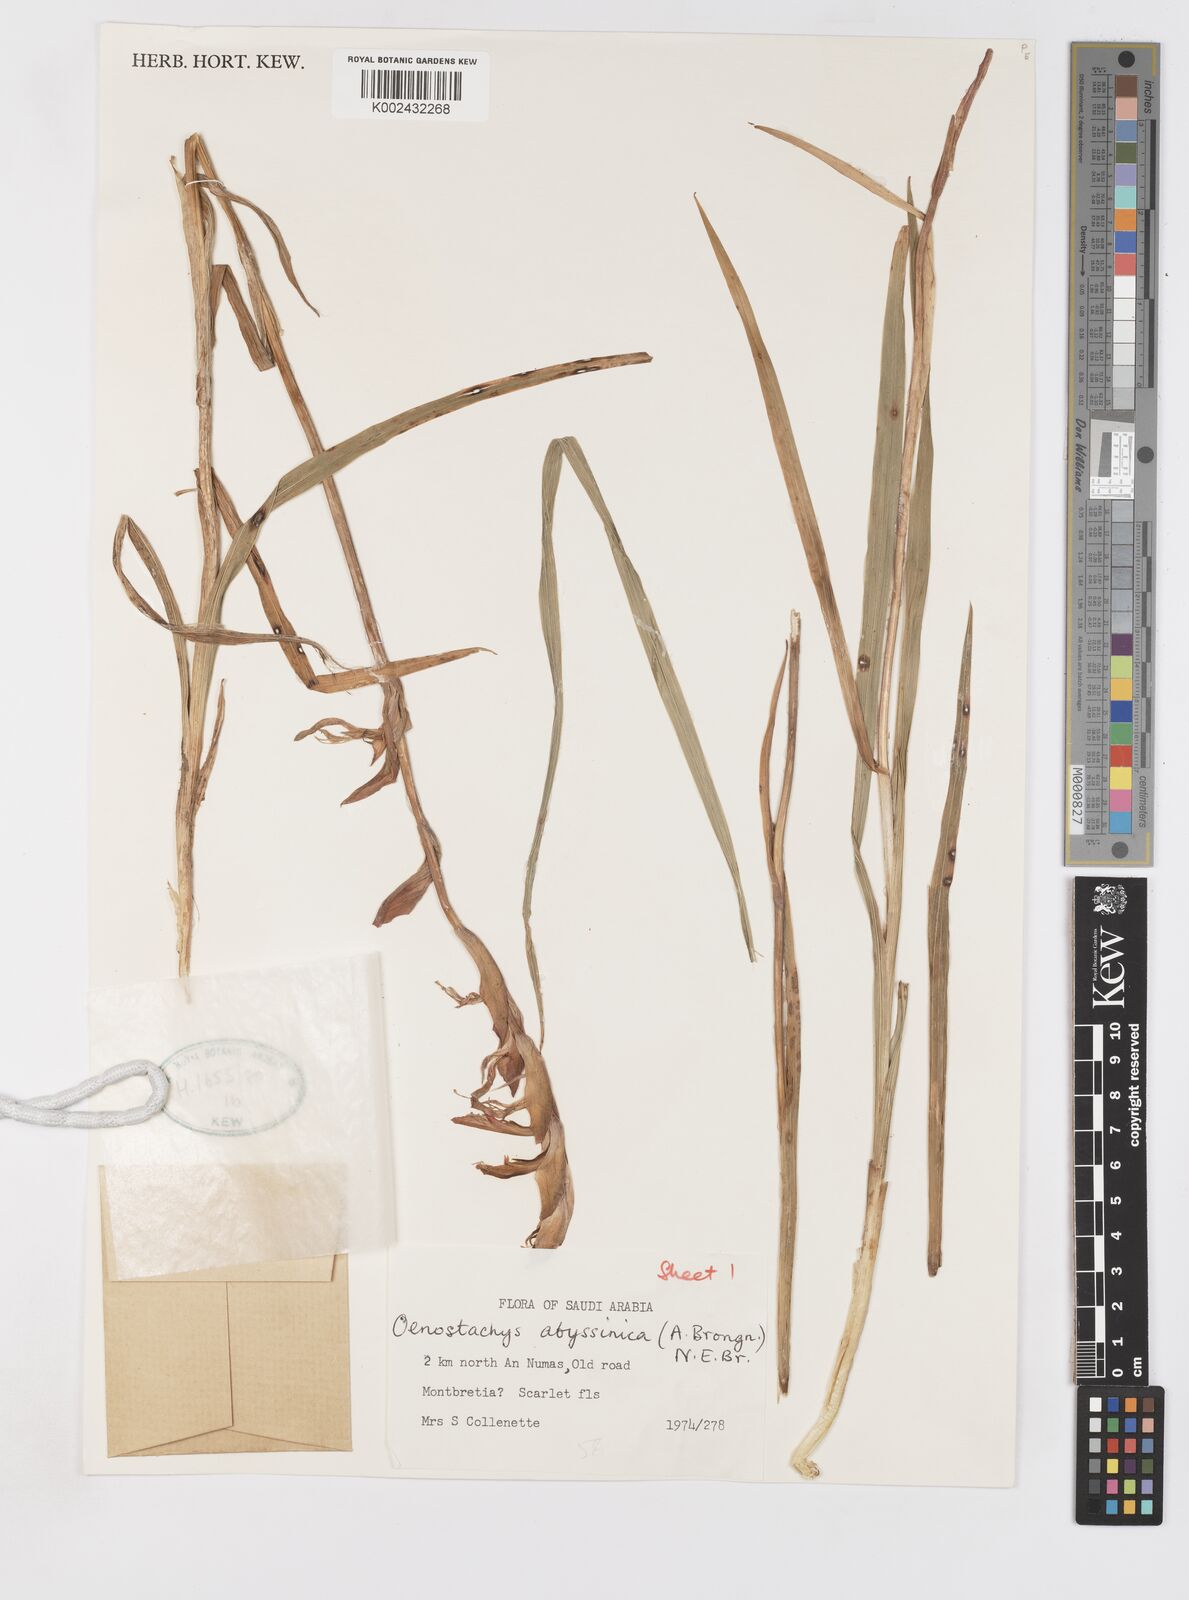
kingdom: Plantae
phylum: Tracheophyta
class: Liliopsida
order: Asparagales
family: Iridaceae
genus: Gladiolus
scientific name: Gladiolus abyssinicus
